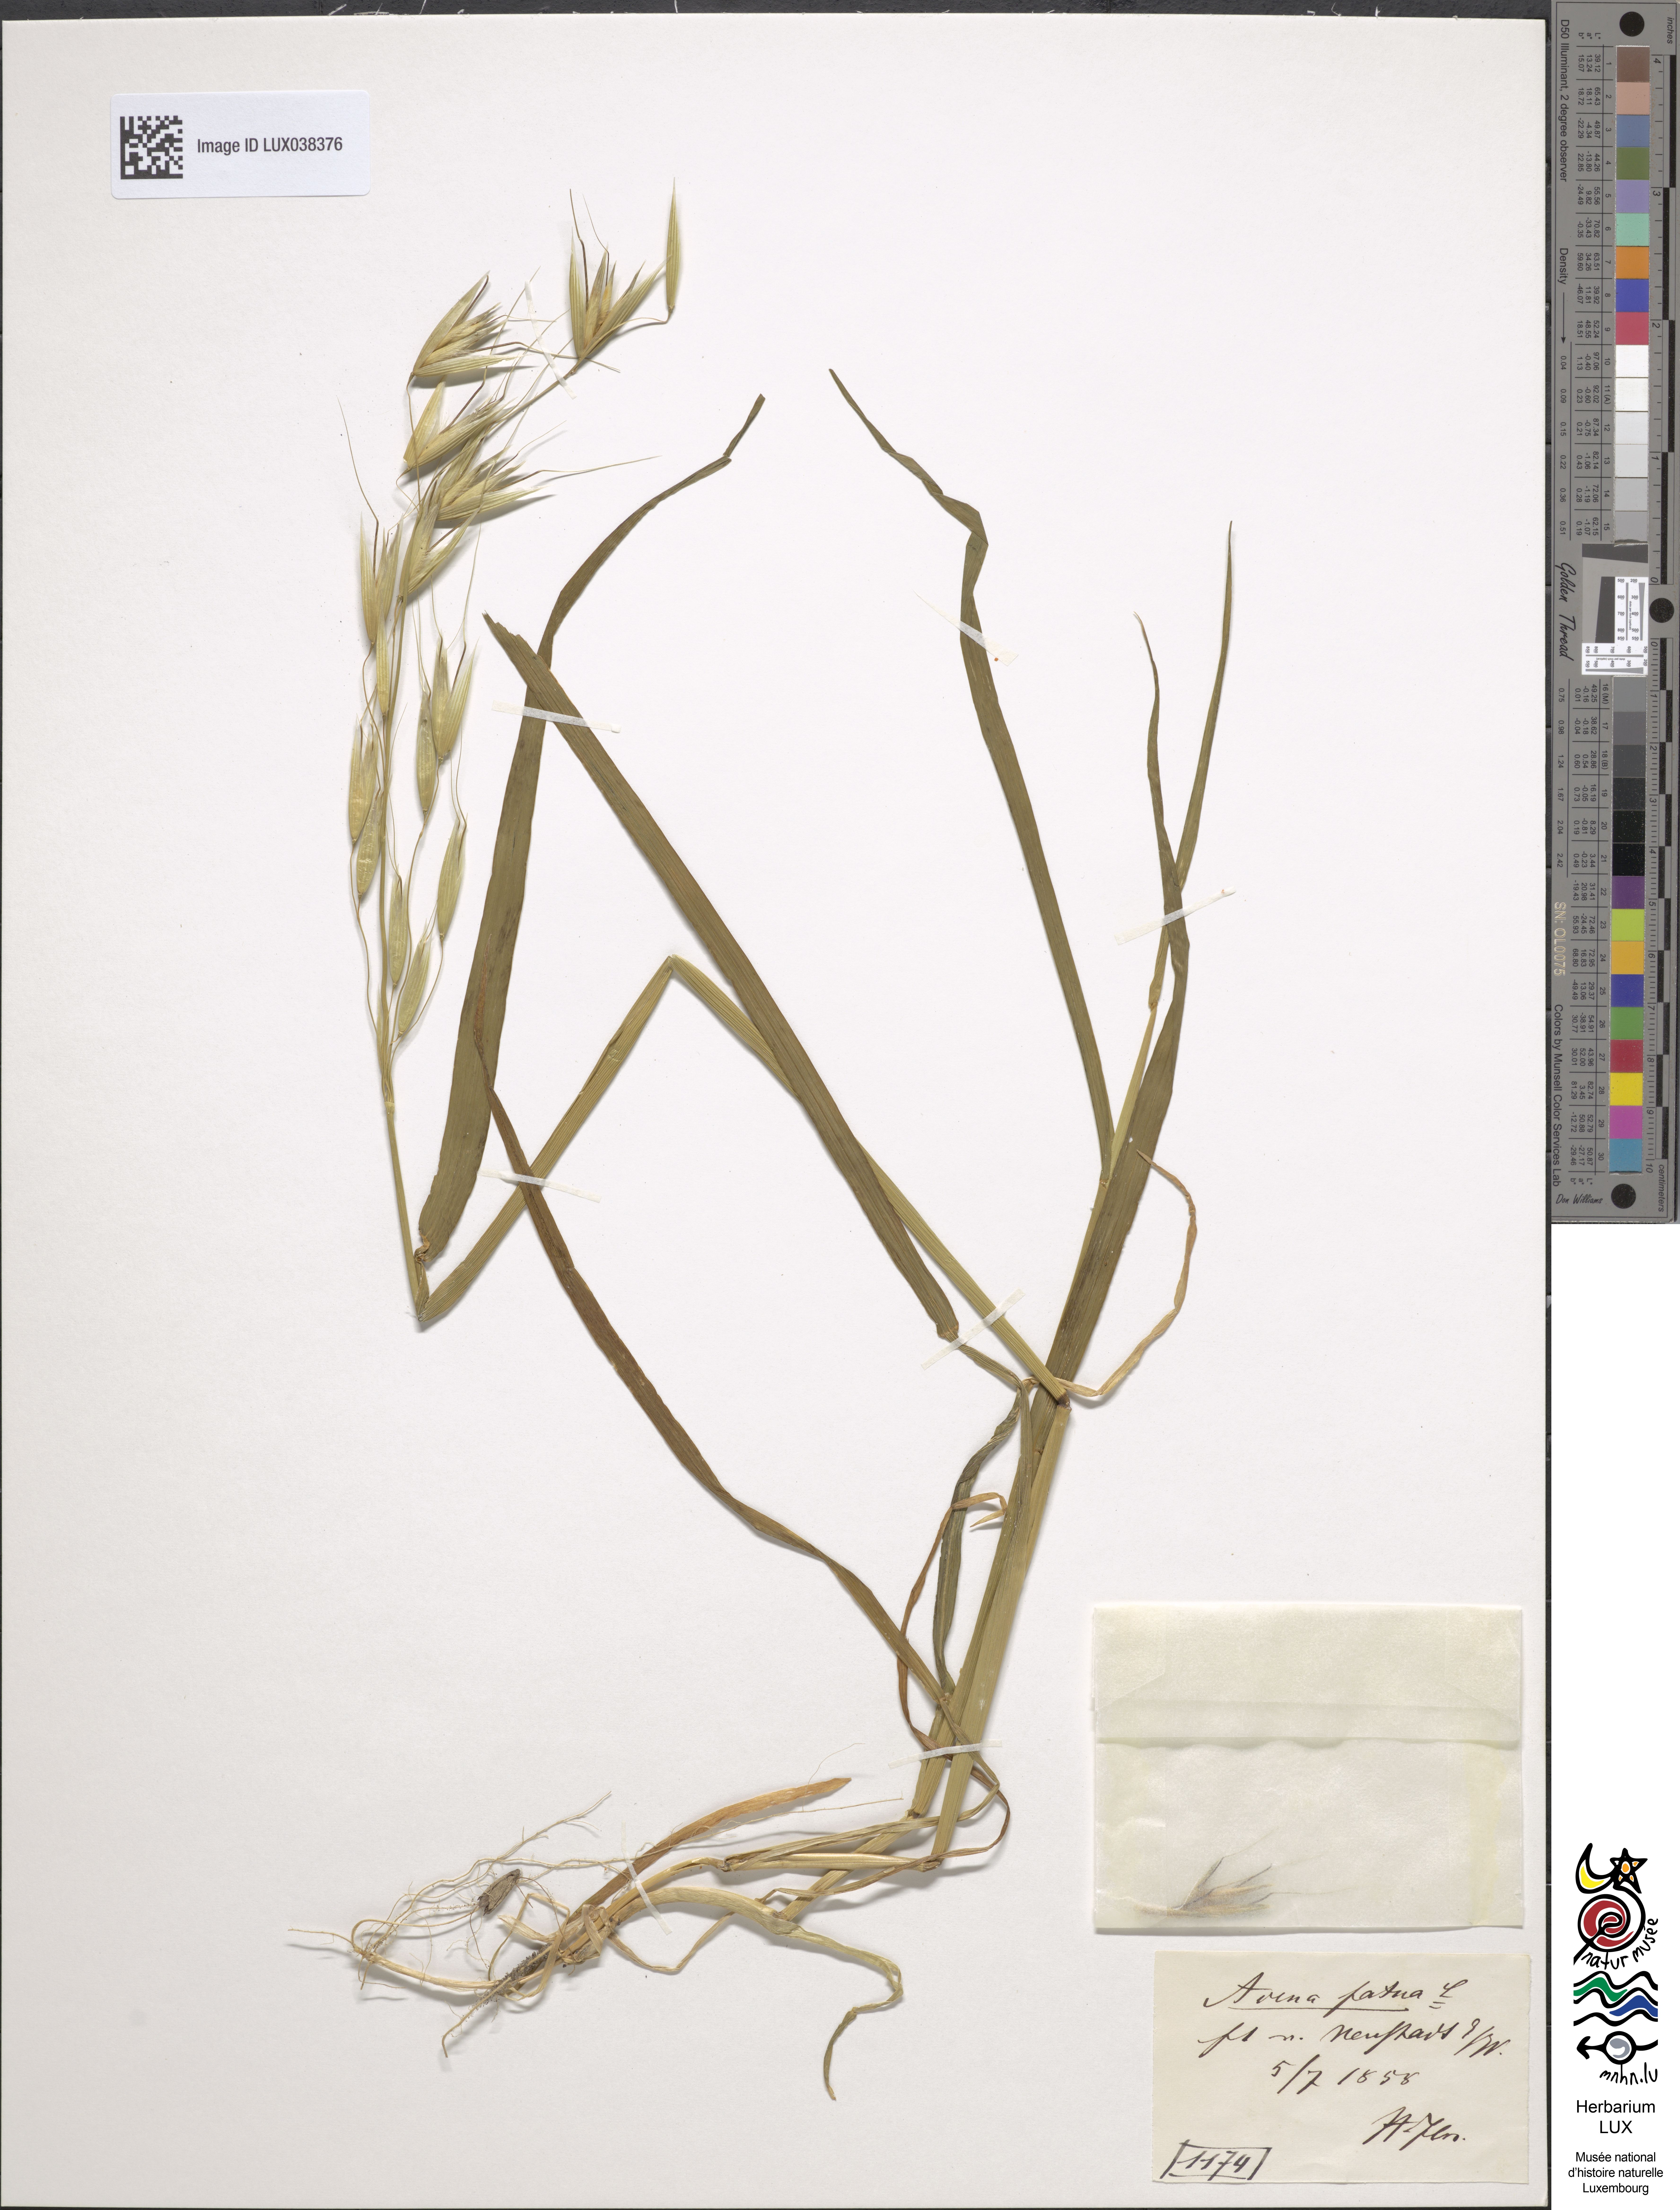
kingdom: Plantae
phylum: Tracheophyta
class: Liliopsida
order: Poales
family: Poaceae
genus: Avena
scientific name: Avena fatua
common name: Wild oat
